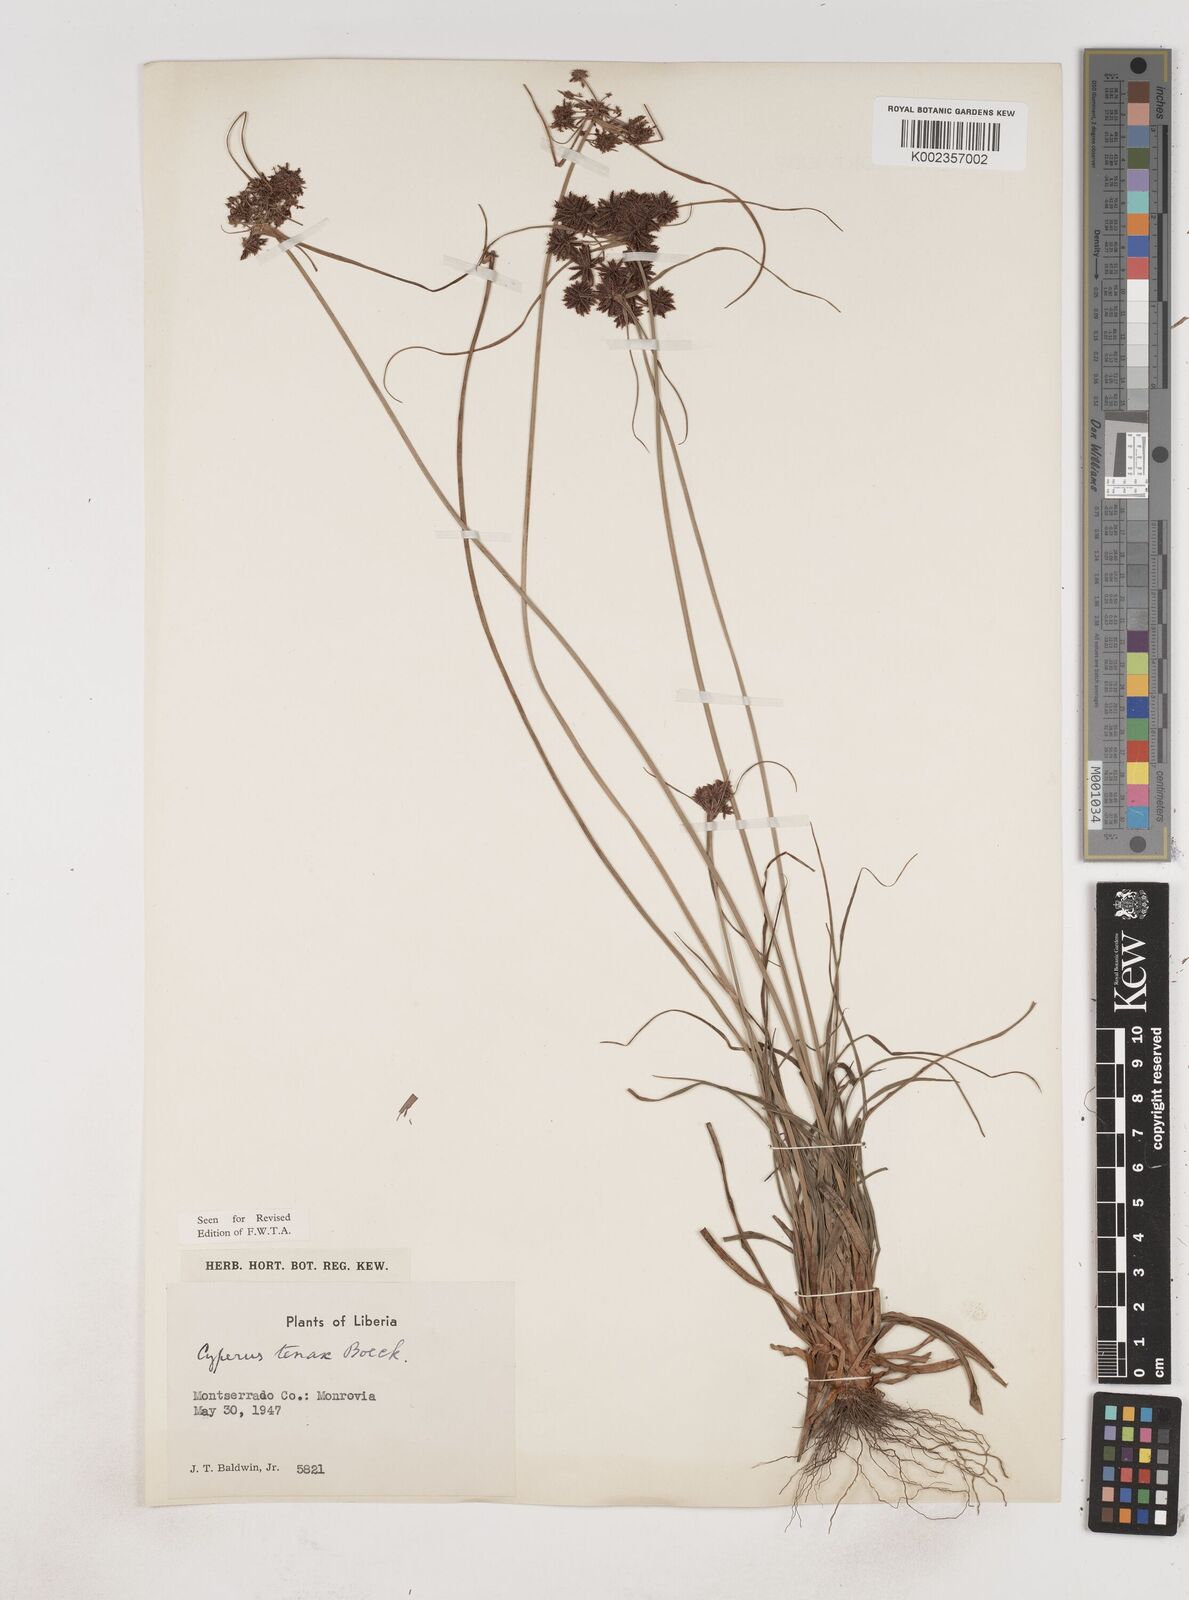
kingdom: Plantae
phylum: Tracheophyta
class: Liliopsida
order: Poales
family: Cyperaceae
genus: Cyperus
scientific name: Cyperus tenax
